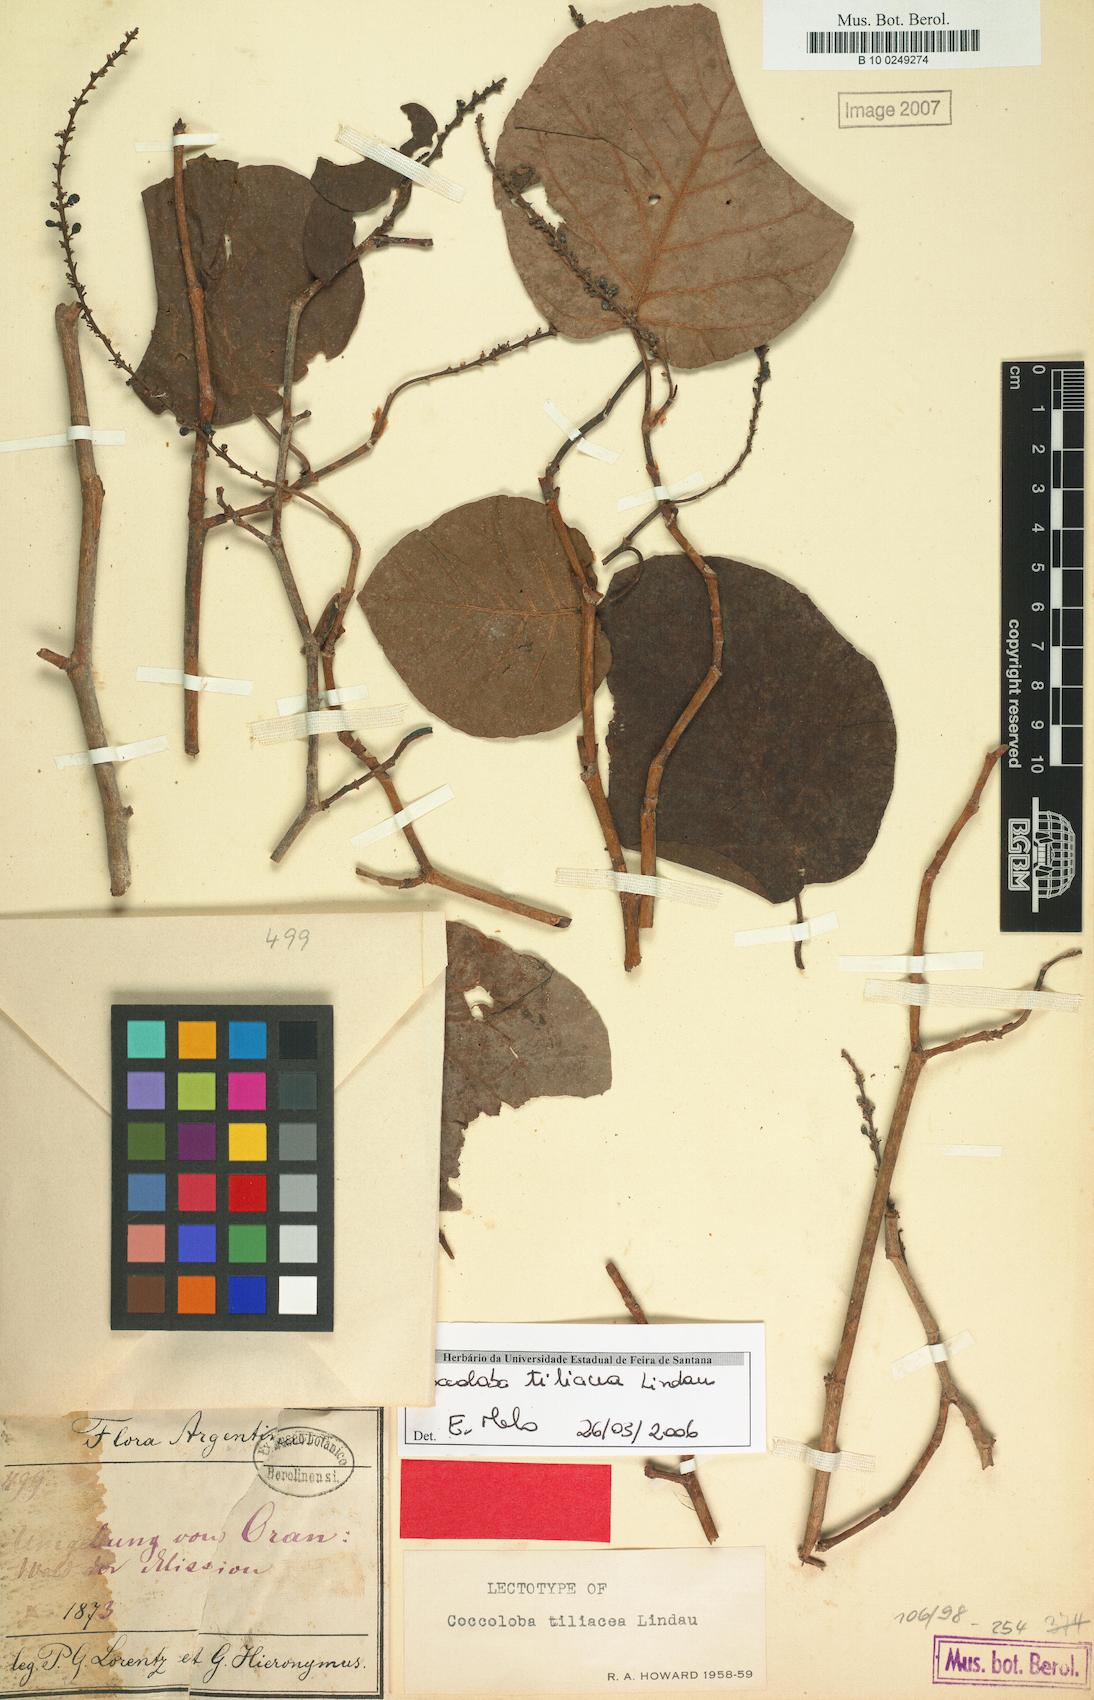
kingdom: Plantae
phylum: Tracheophyta
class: Magnoliopsida
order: Caryophyllales
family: Polygonaceae
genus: Coccoloba
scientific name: Coccoloba tiliacea
